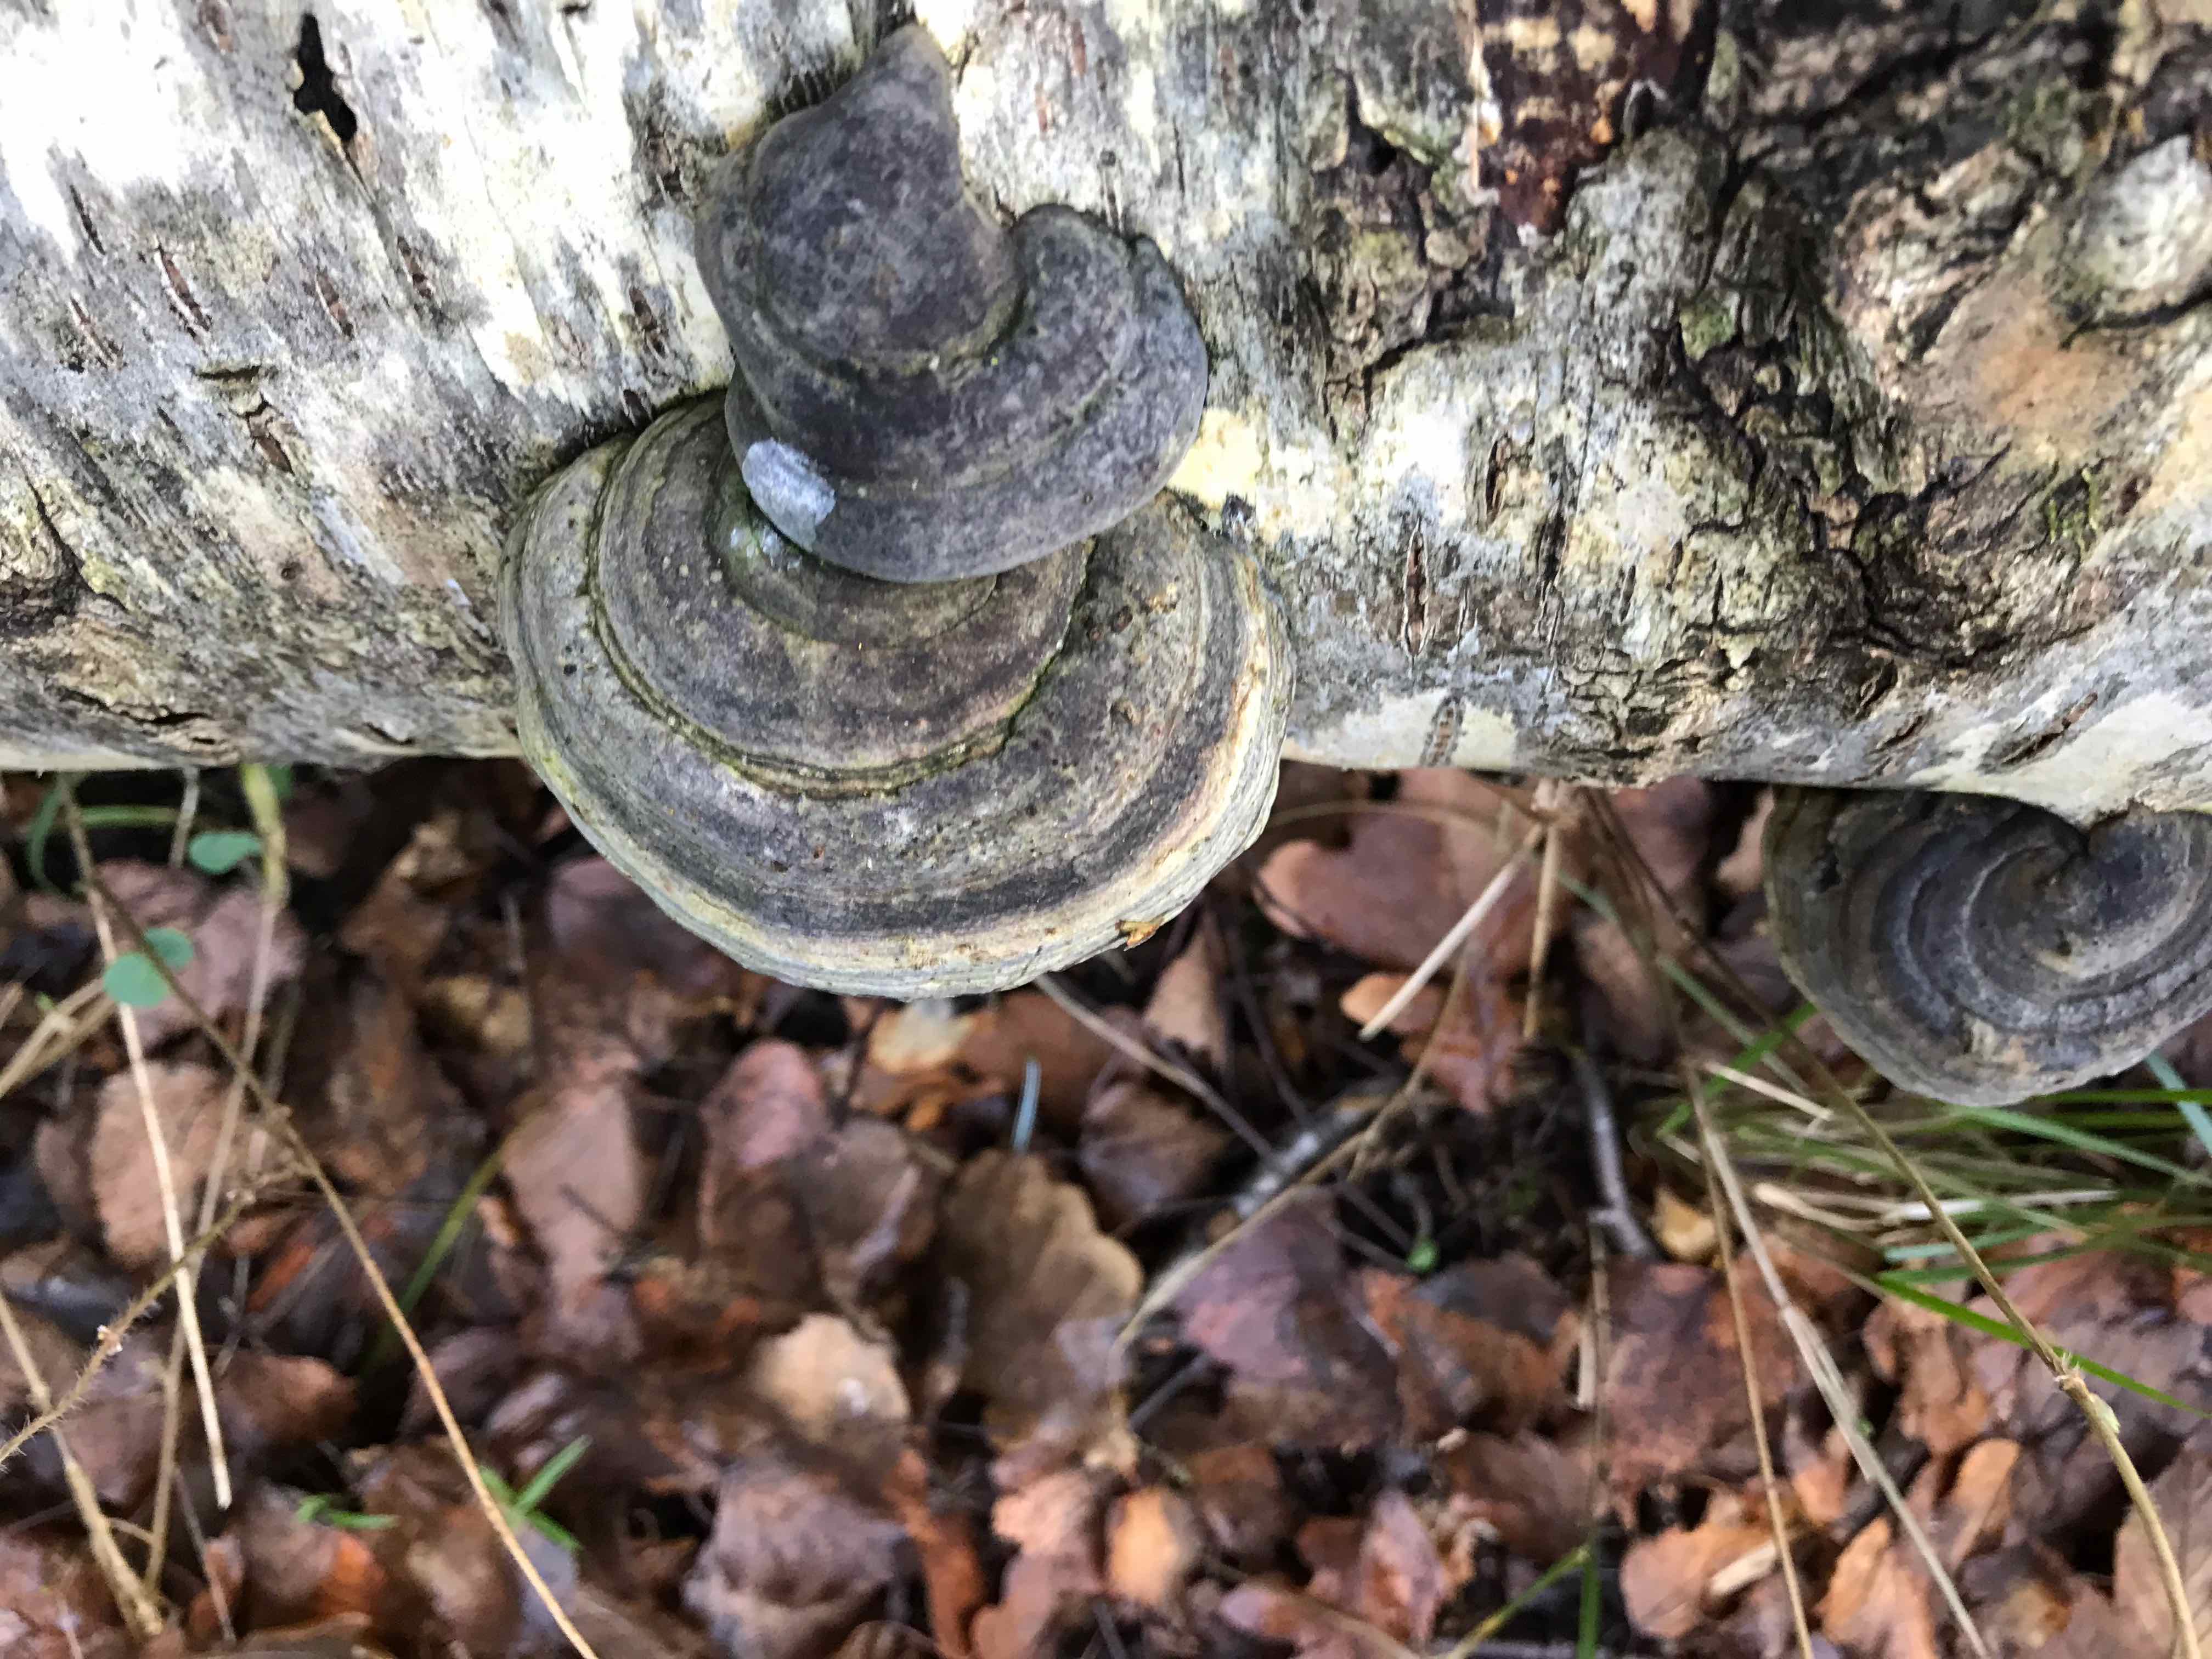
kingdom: Fungi
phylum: Basidiomycota
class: Agaricomycetes
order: Polyporales
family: Polyporaceae
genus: Fomes
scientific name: Fomes fomentarius
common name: tøndersvamp
